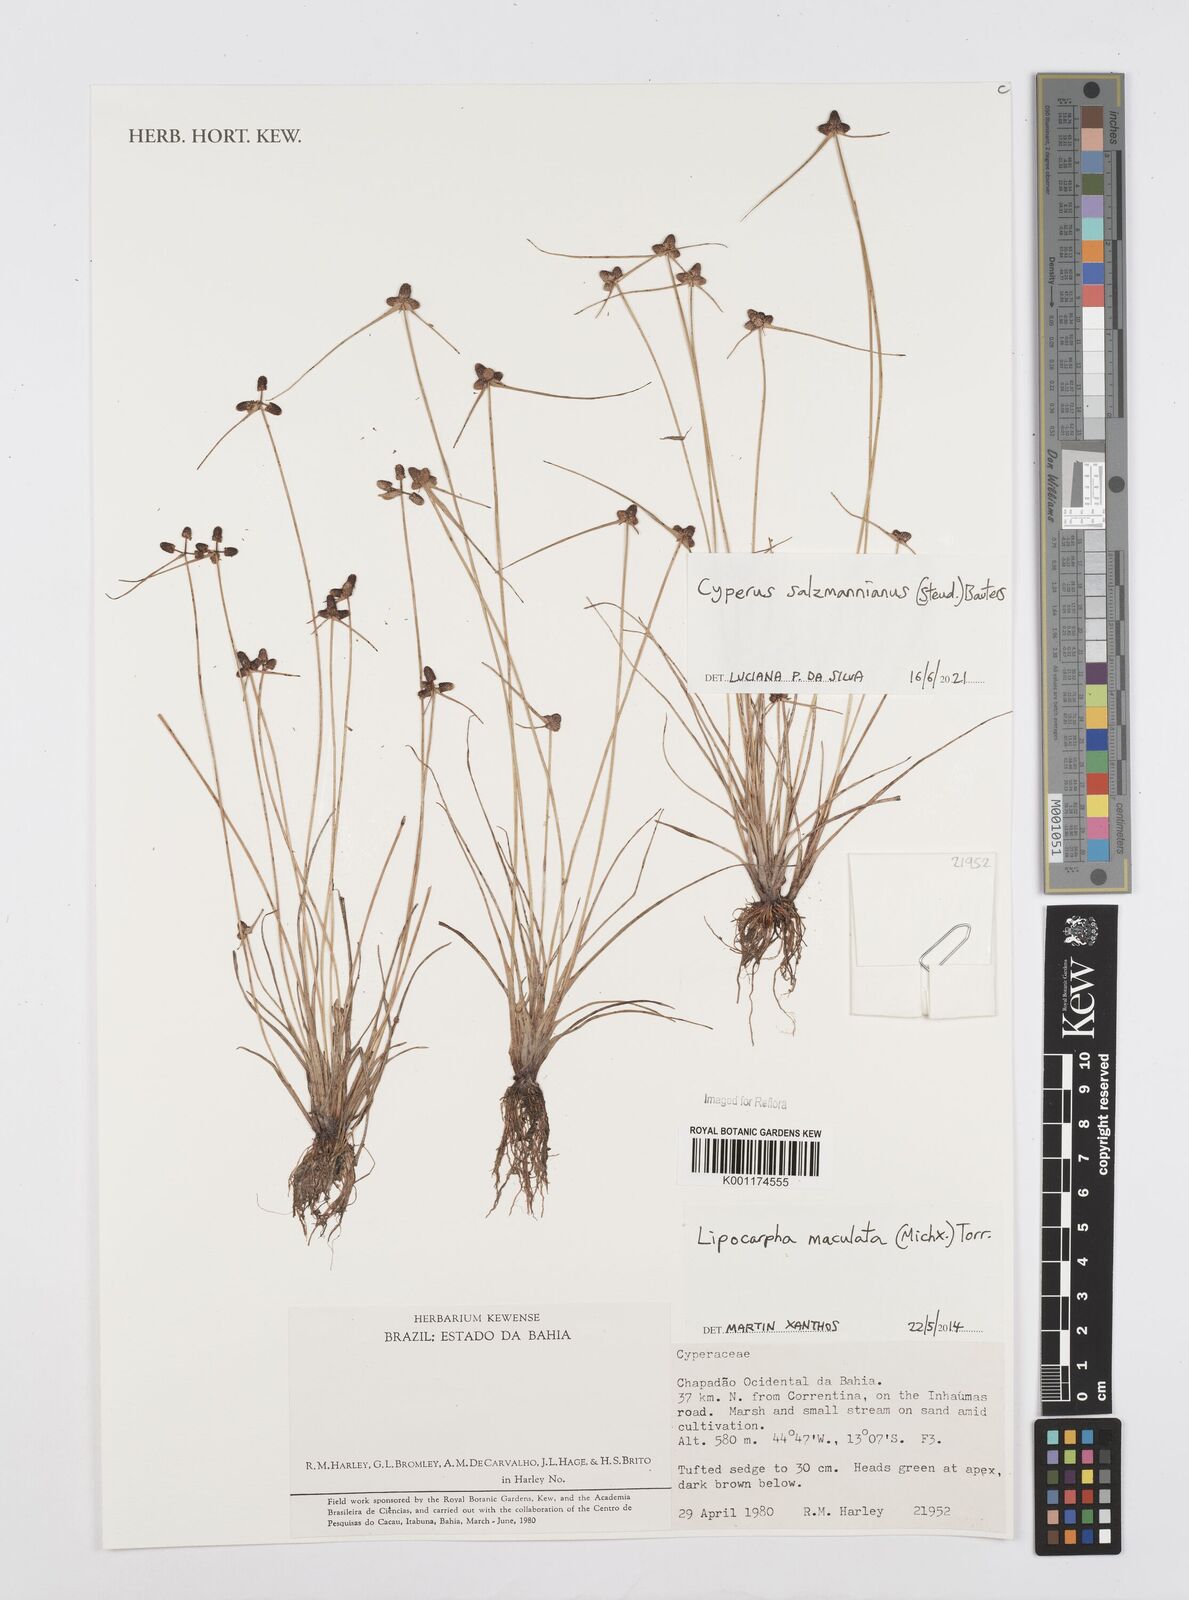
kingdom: Plantae
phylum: Tracheophyta
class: Liliopsida
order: Poales
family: Cyperaceae
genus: Cyperus
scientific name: Cyperus salzmannianus
